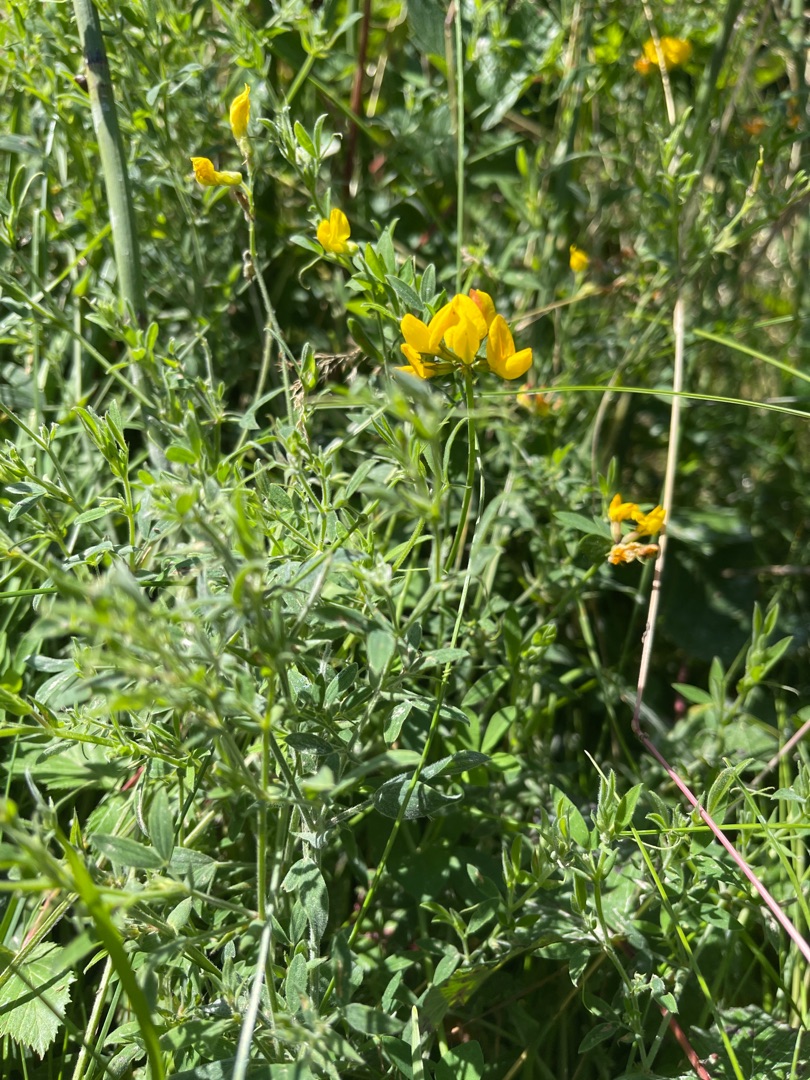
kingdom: Plantae
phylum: Tracheophyta
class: Magnoliopsida
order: Fabales
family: Fabaceae
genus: Lotus
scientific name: Lotus corniculatus
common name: Almindelig kællingetand
